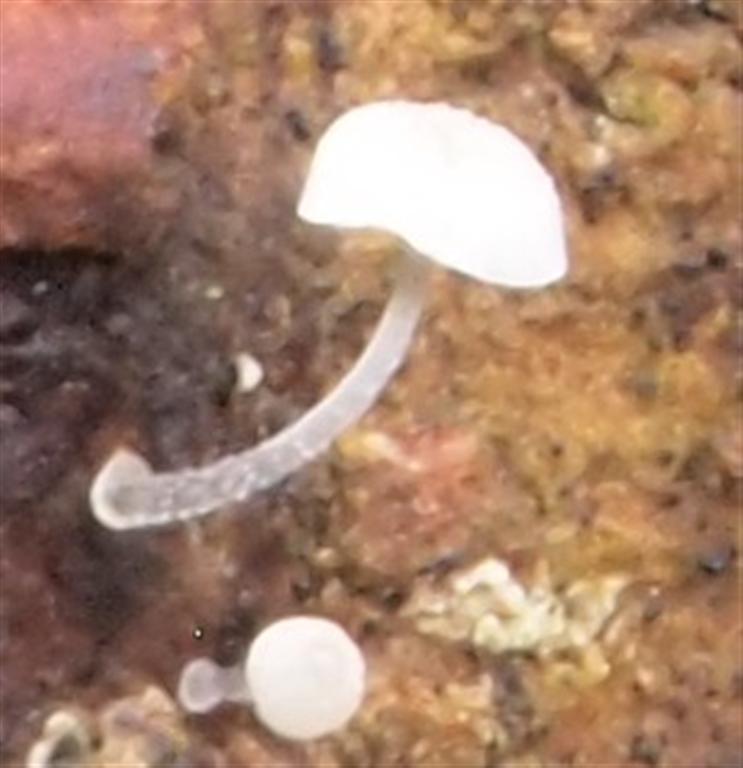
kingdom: Fungi
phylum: Basidiomycota
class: Agaricomycetes
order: Agaricales
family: Mycenaceae
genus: Mycena
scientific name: Mycena tenerrima
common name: pudret huesvamp
